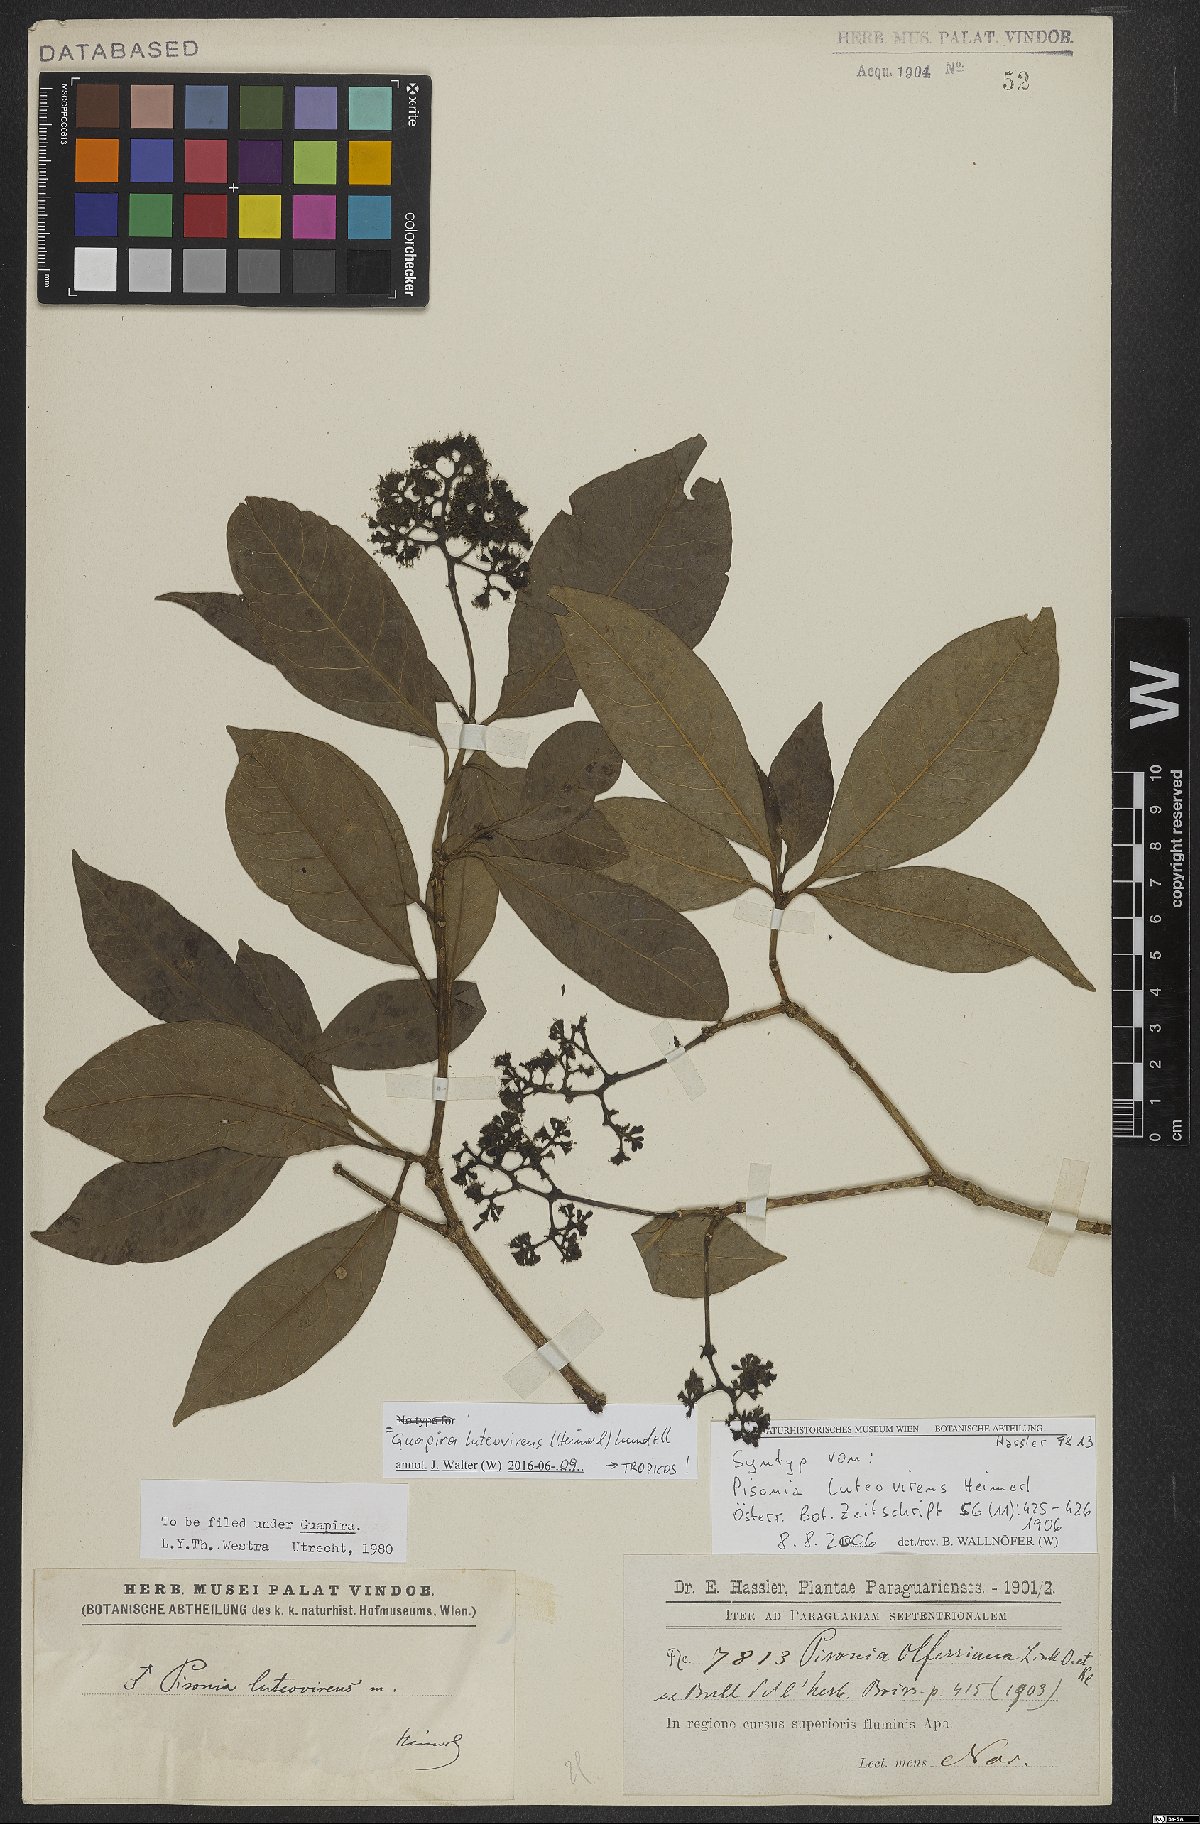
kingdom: Plantae
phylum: Tracheophyta
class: Magnoliopsida
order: Caryophyllales
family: Nyctaginaceae
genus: Guapira
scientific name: Guapira areolata
